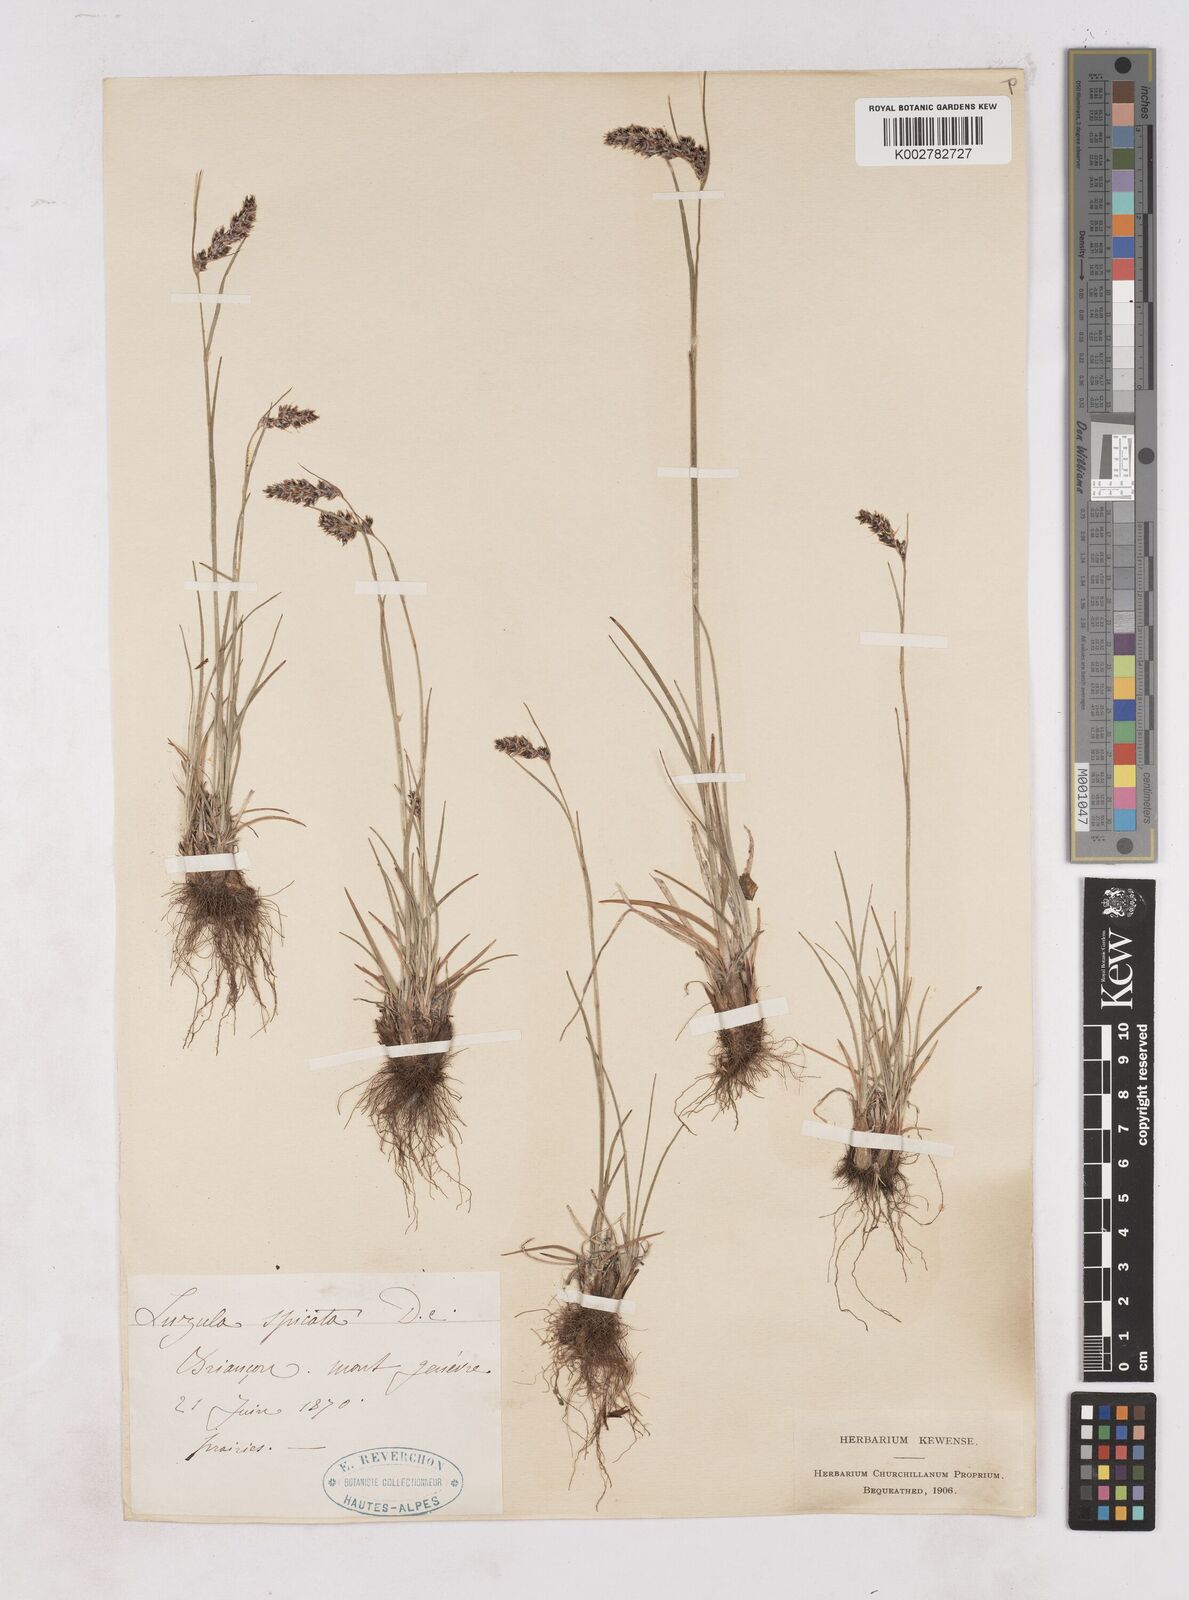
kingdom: Plantae
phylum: Tracheophyta
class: Liliopsida
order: Poales
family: Juncaceae
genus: Luzula
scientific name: Luzula spicata
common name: Spiked wood-rush
